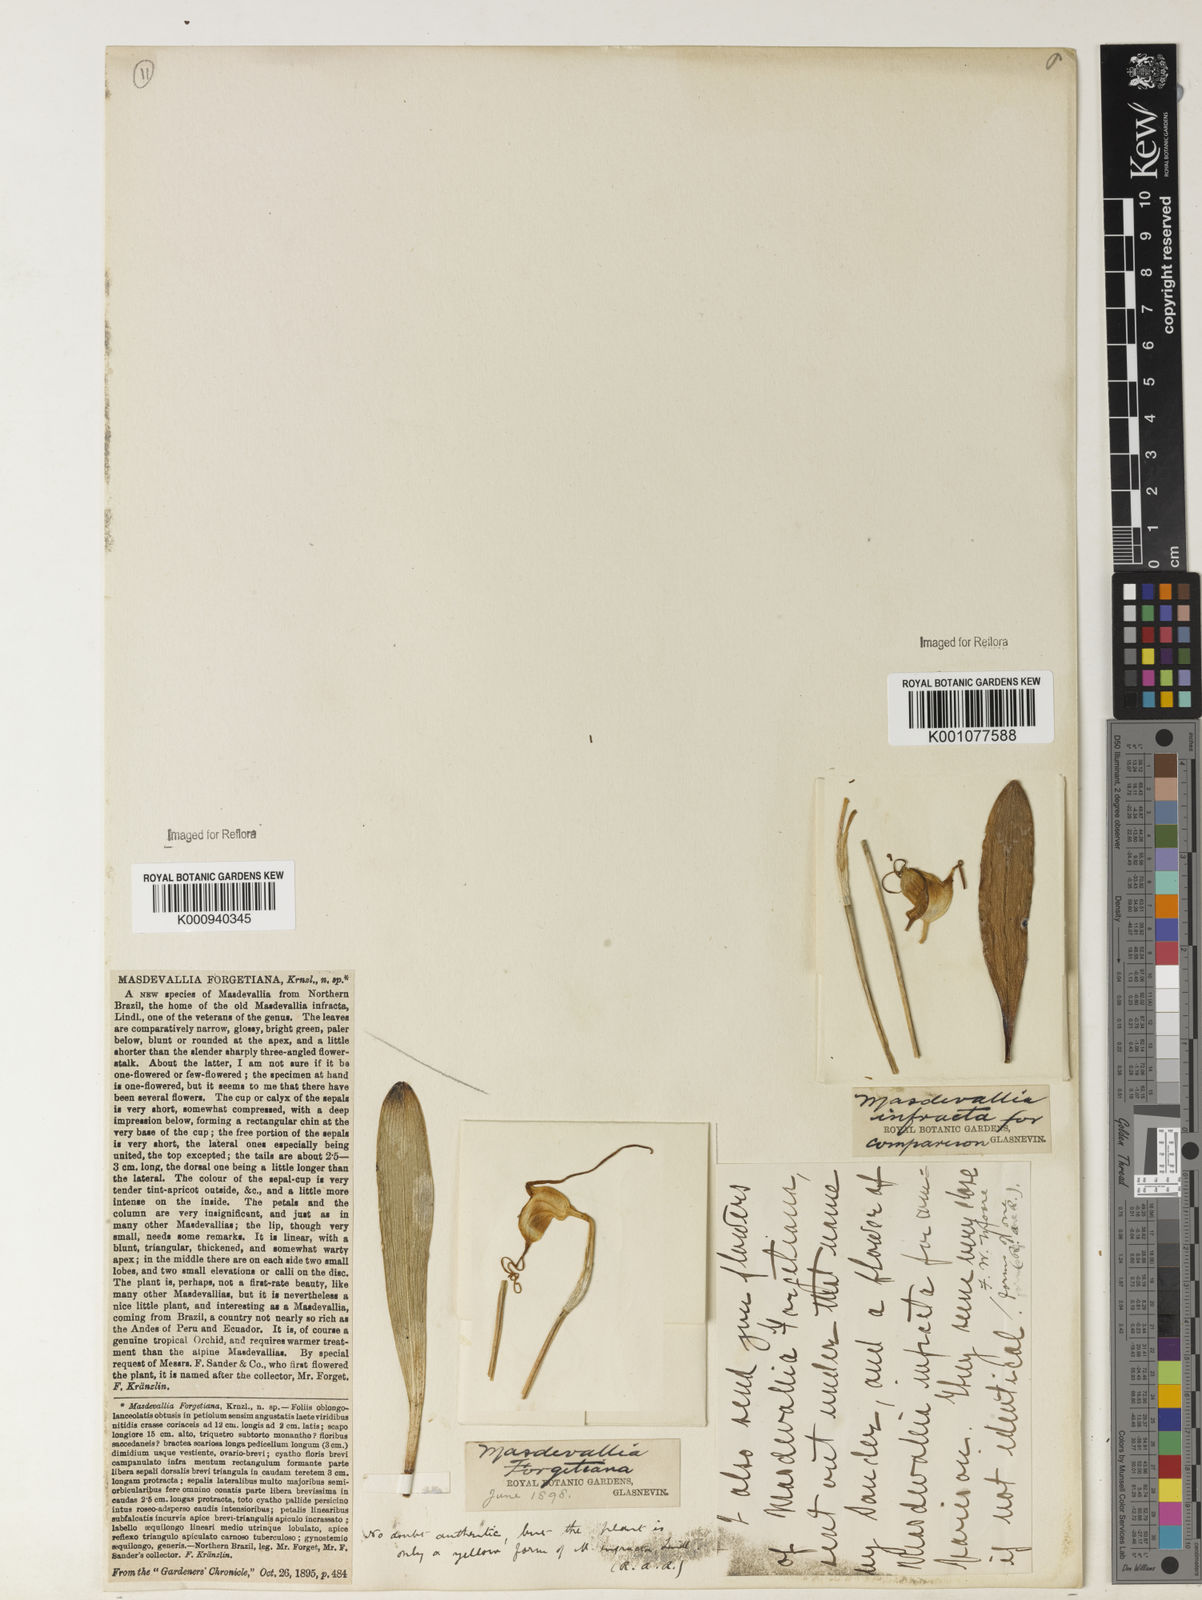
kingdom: Plantae
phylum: Tracheophyta
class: Liliopsida
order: Asparagales
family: Orchidaceae
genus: Masdevallia
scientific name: Masdevallia infracta
